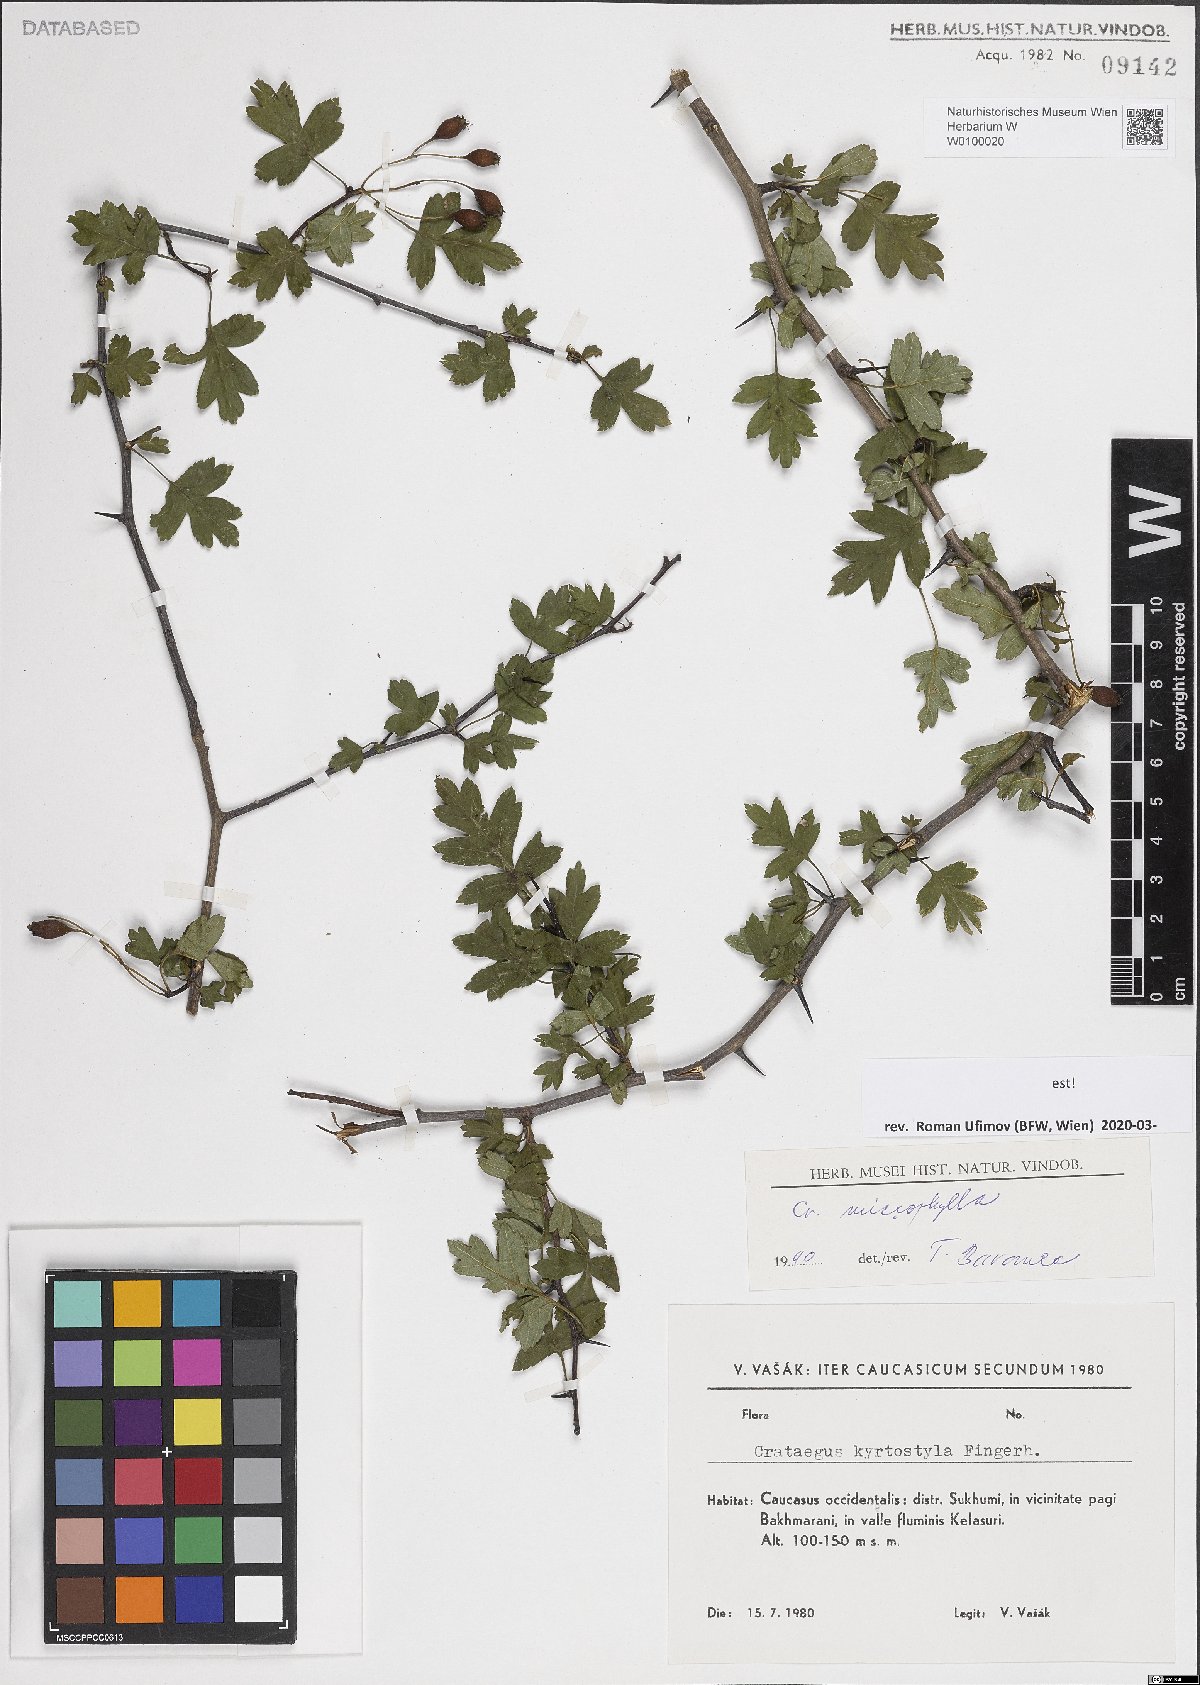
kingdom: Plantae
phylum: Tracheophyta
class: Magnoliopsida
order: Rosales
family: Rosaceae
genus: Crataegus
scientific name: Crataegus microphylla
